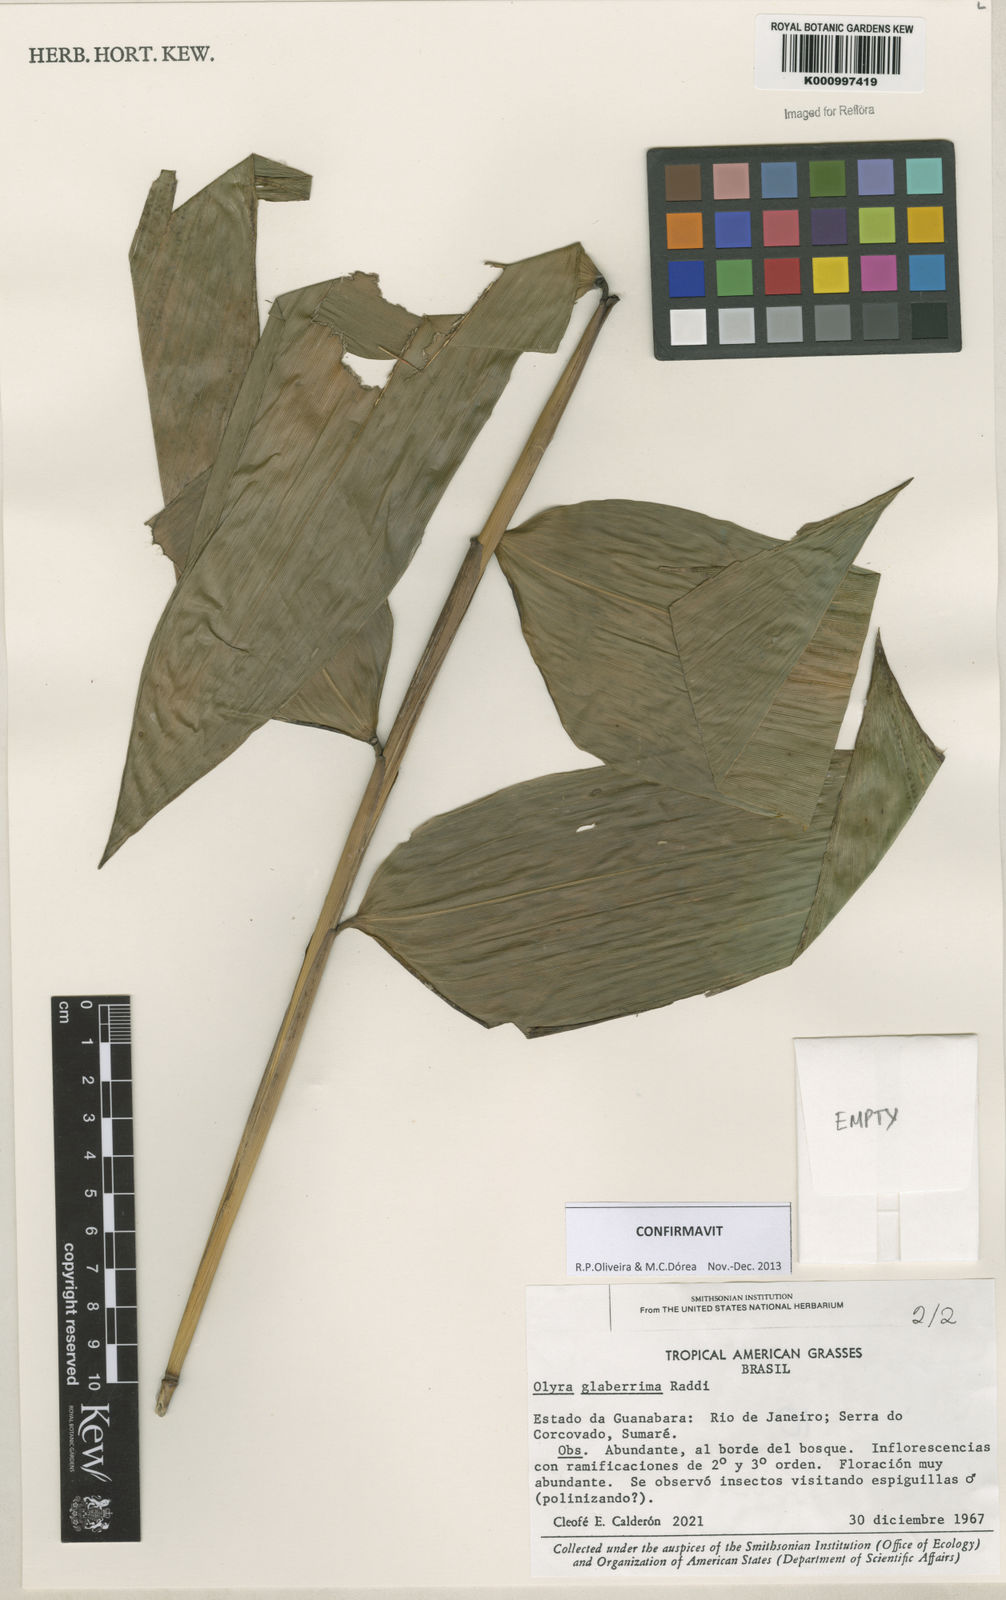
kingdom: Plantae
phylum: Tracheophyta
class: Liliopsida
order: Poales
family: Poaceae
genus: Olyra
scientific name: Olyra glaberrima
